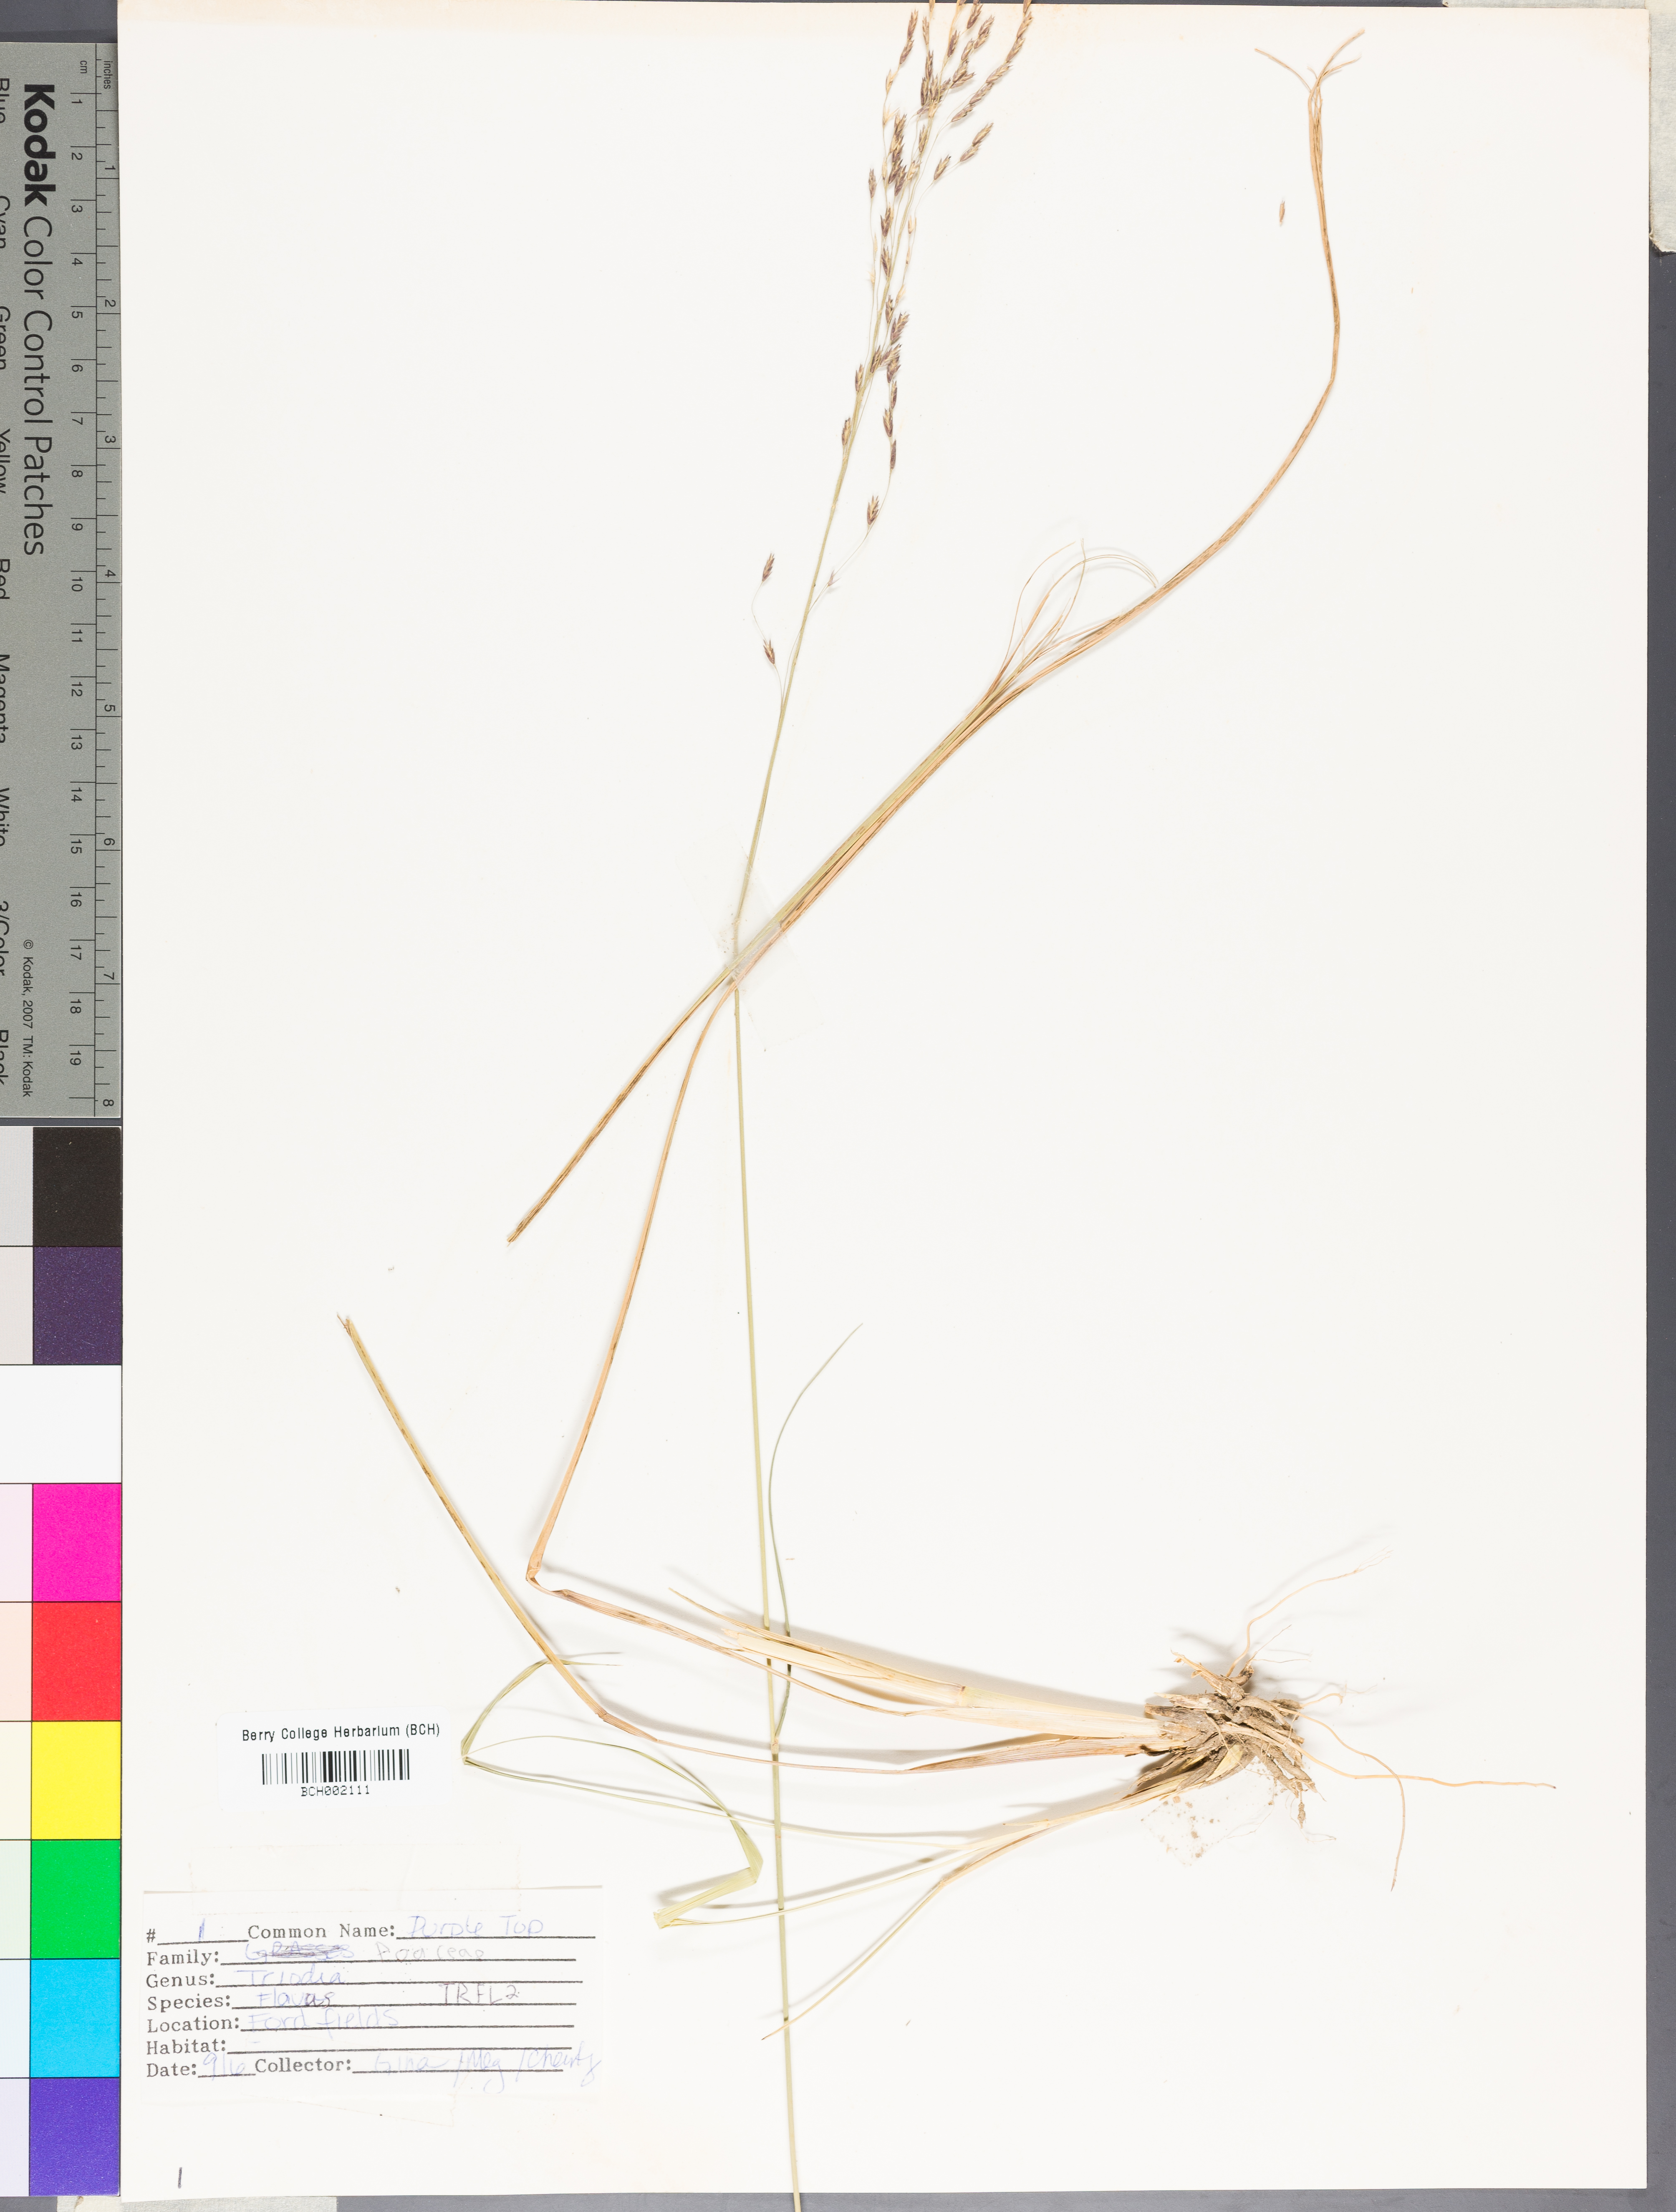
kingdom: Plantae
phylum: Tracheophyta
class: Liliopsida
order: Poales
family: Poaceae
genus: Tridens
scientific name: Tridens flavus
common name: Purpletop
